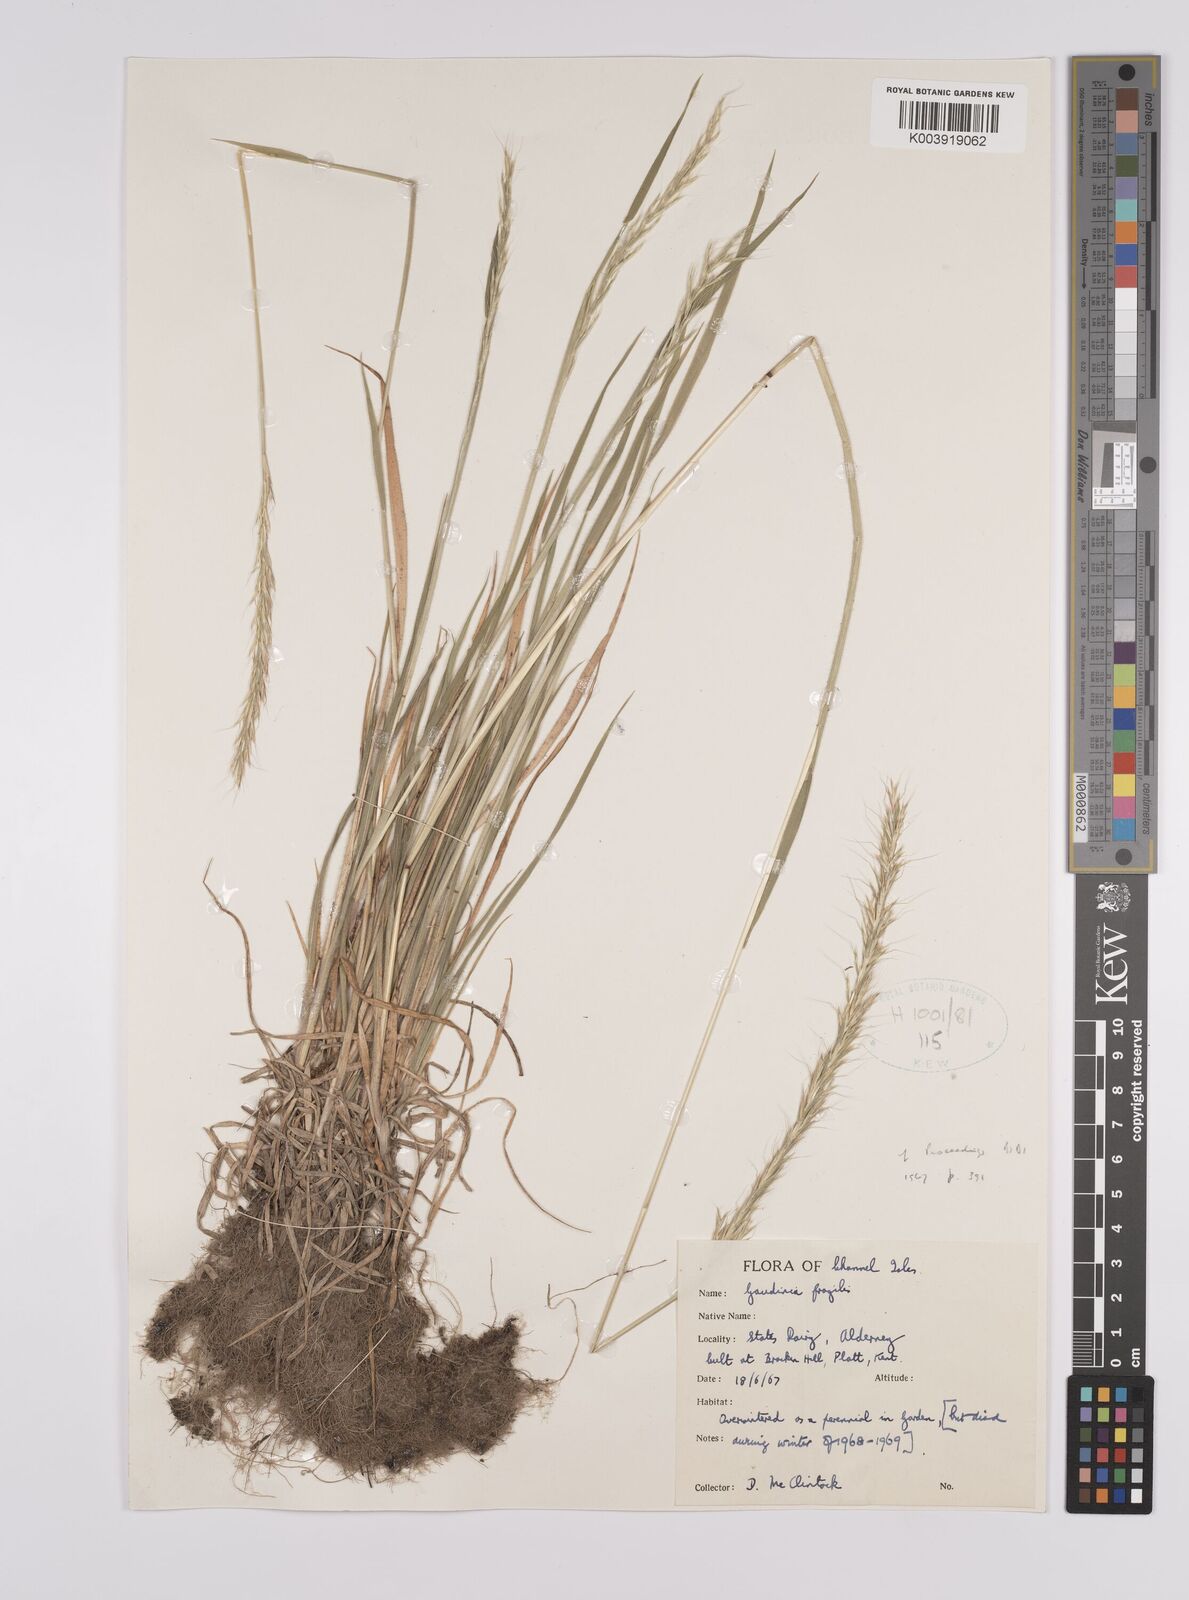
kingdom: Plantae
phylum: Tracheophyta
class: Liliopsida
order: Poales
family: Poaceae
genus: Gaudinia
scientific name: Gaudinia fragilis
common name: French oat-grass
